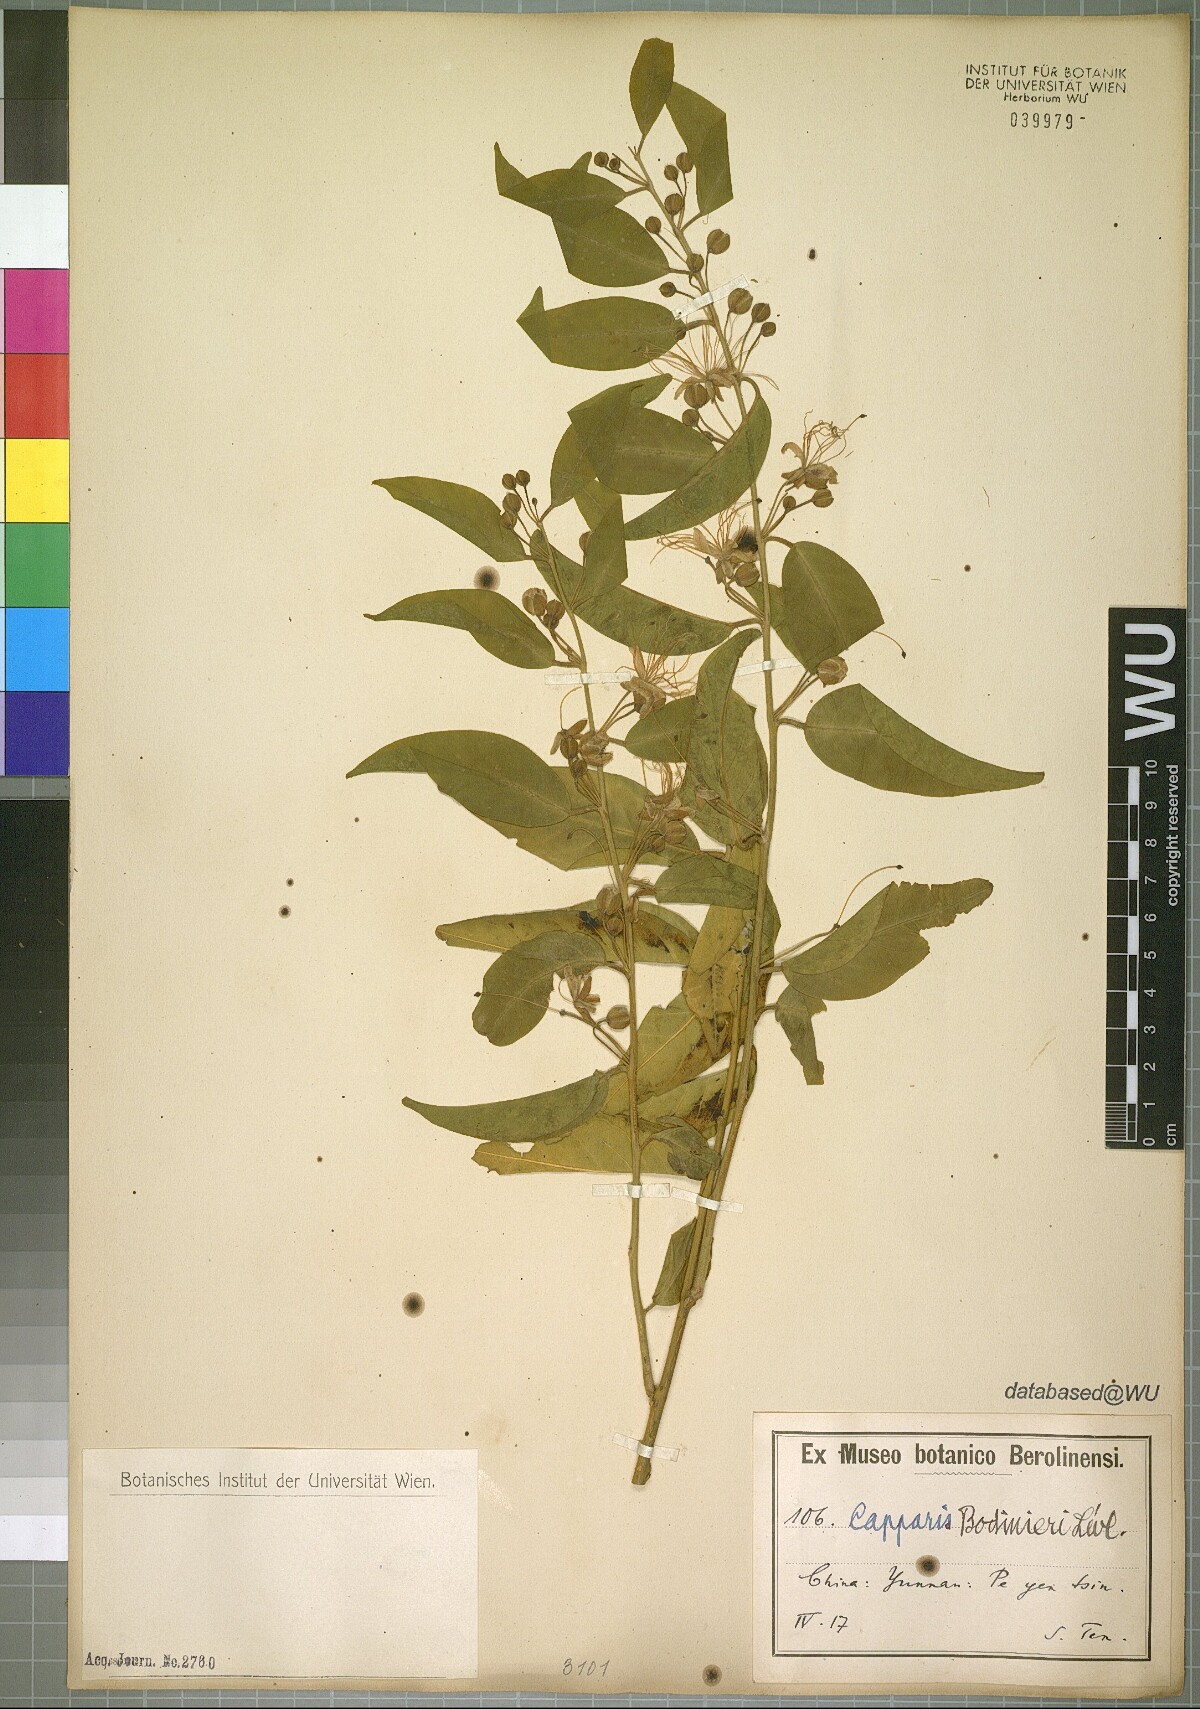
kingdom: Plantae
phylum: Tracheophyta
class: Magnoliopsida
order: Brassicales
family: Capparaceae
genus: Capparis
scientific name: Capparis bodinieri
